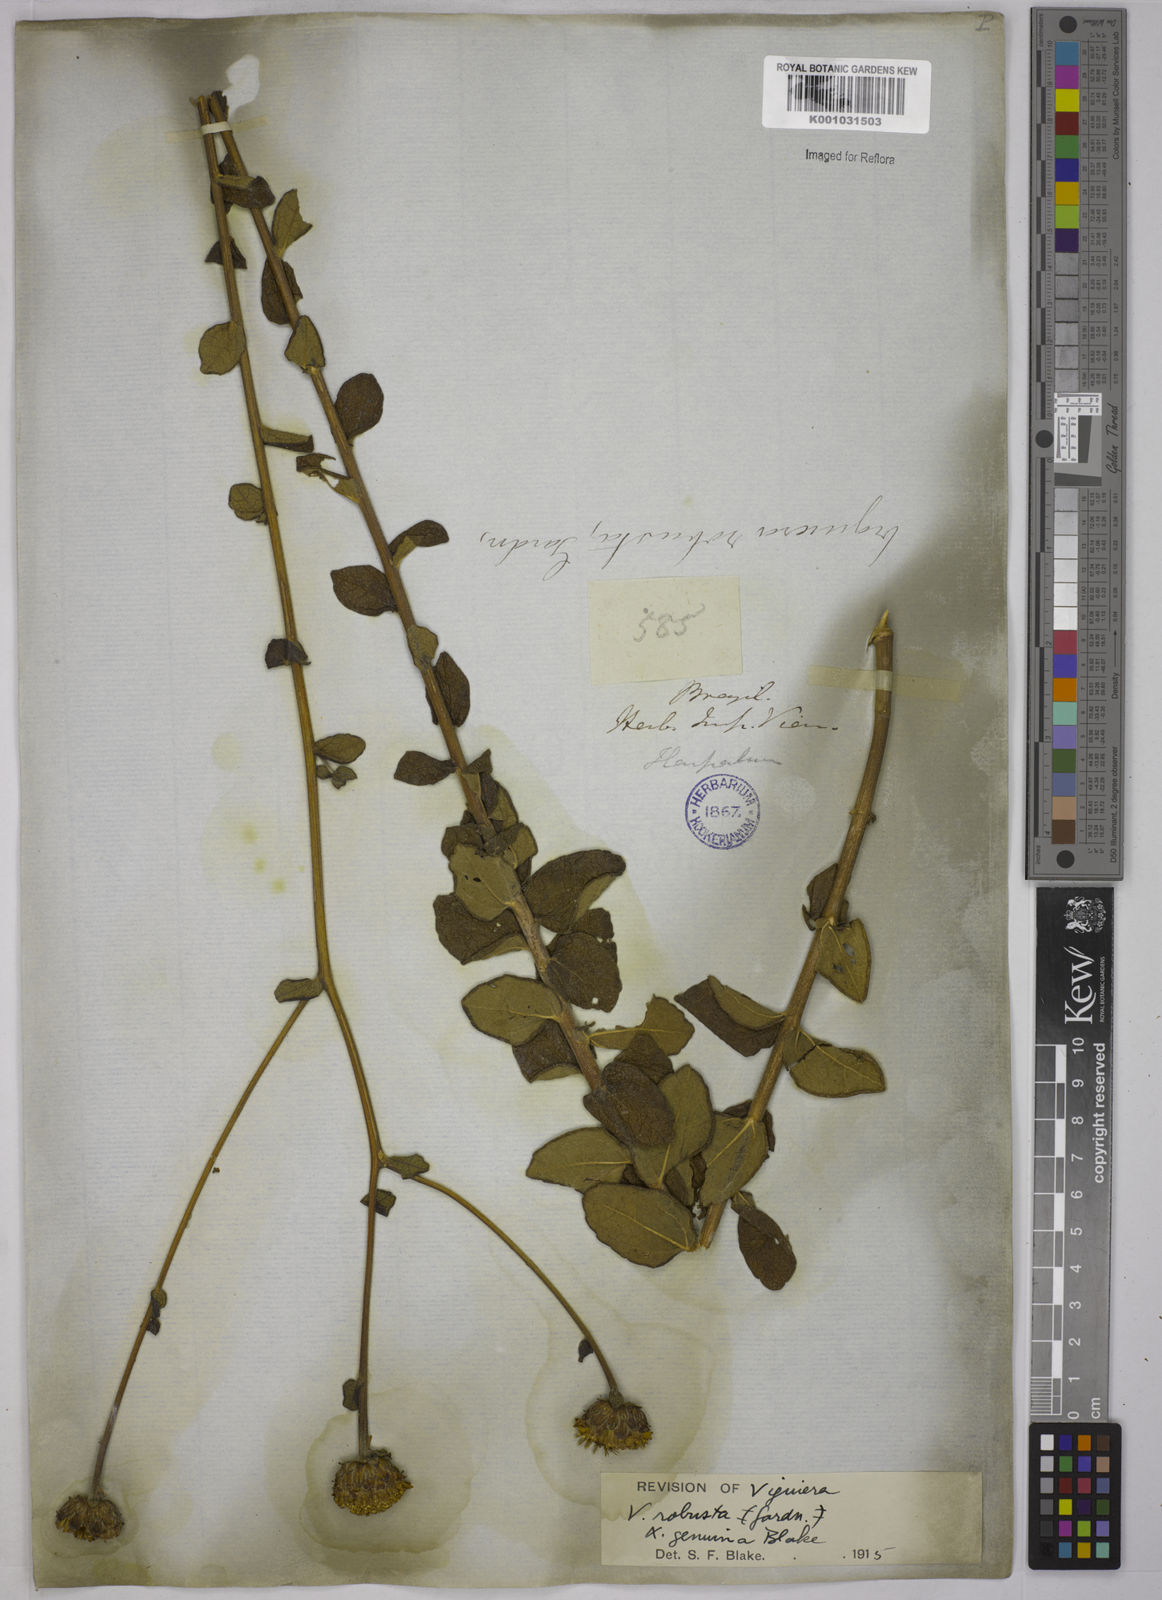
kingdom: Plantae
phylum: Tracheophyta
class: Magnoliopsida
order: Asterales
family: Asteraceae
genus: Aldama
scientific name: Aldama robusta
